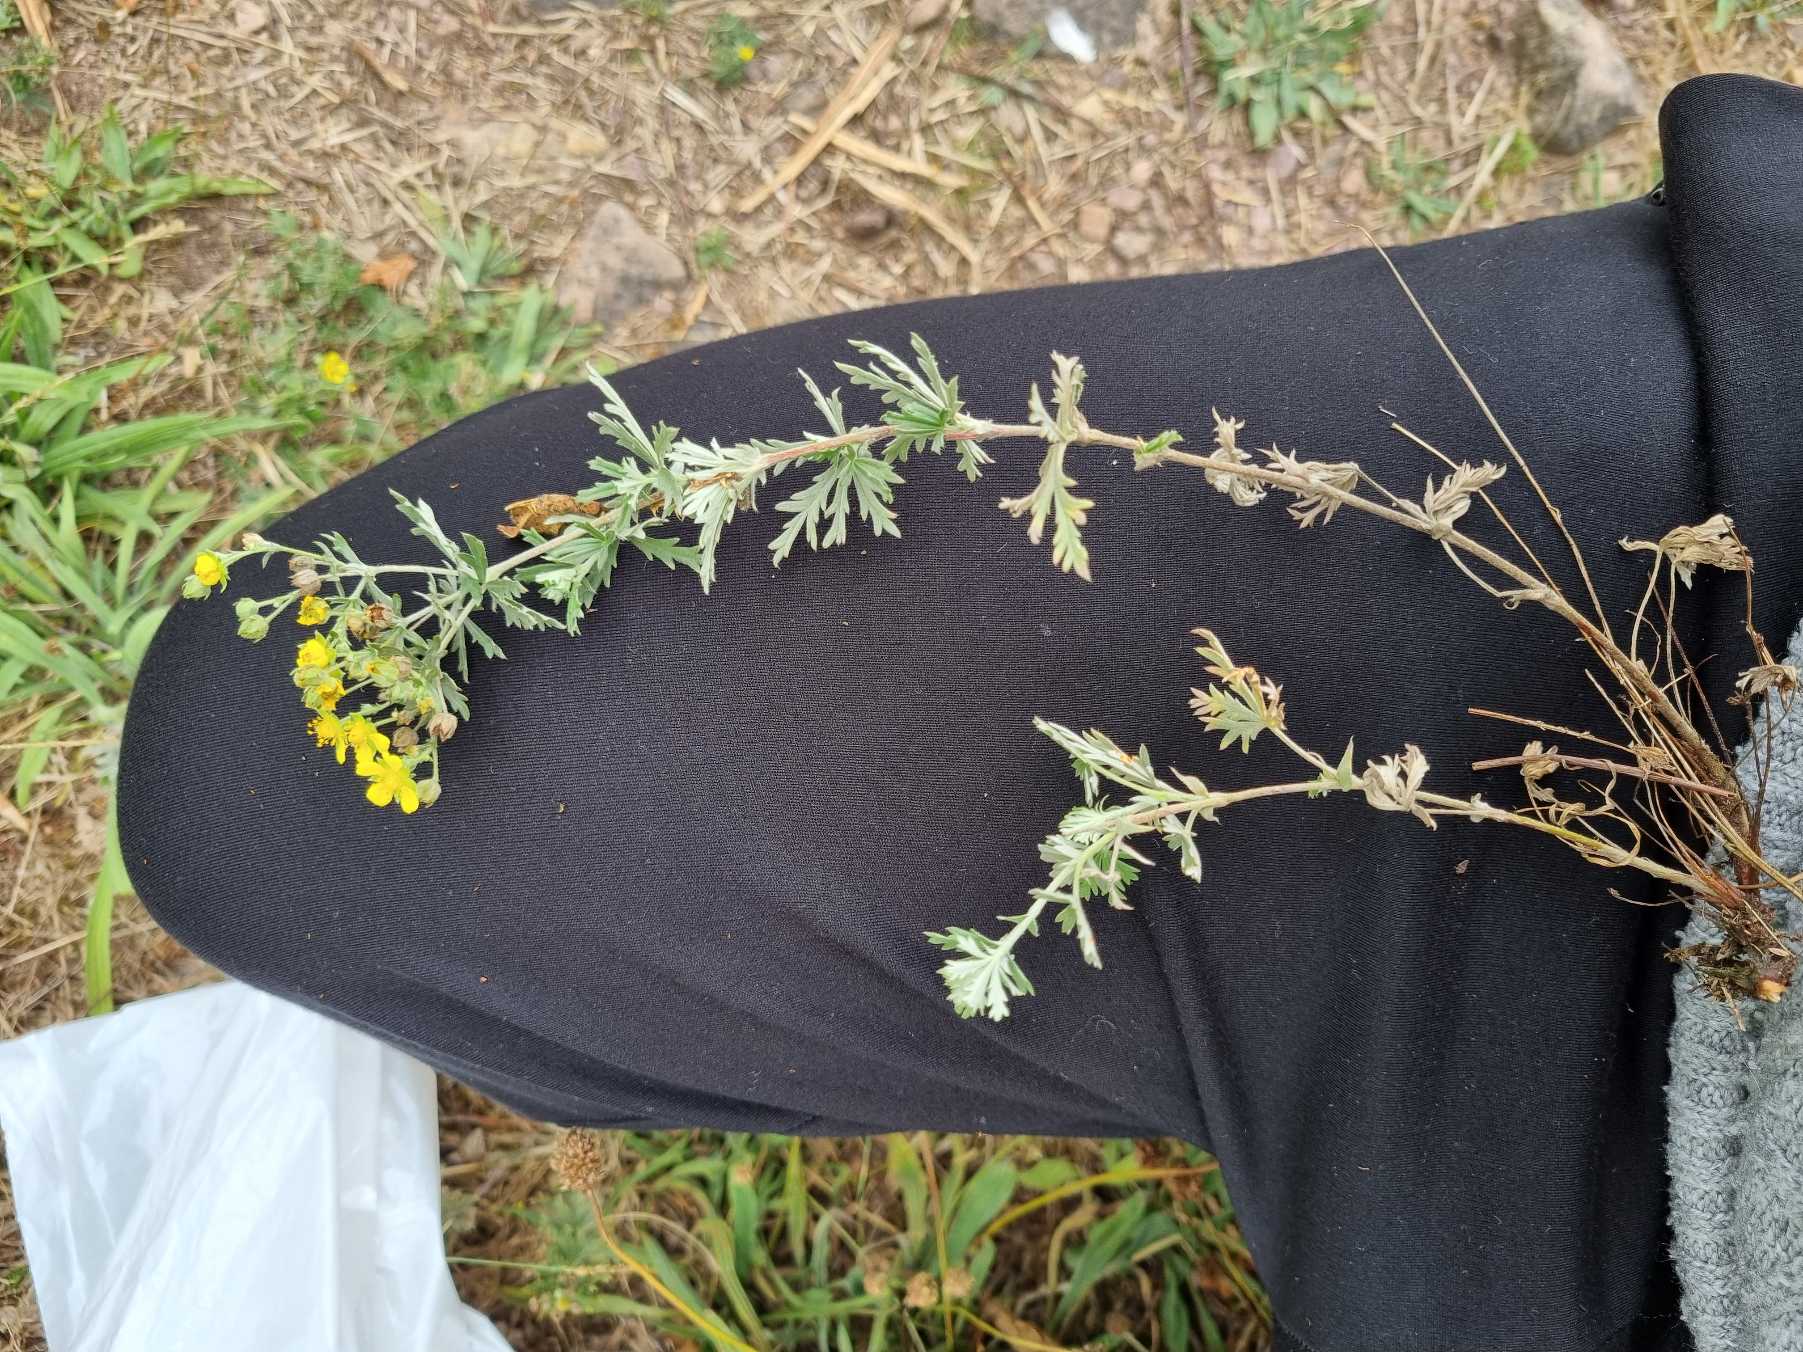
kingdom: Plantae
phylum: Tracheophyta
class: Magnoliopsida
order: Rosales
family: Rosaceae
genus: Potentilla
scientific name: Potentilla argentea
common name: Sølv-potentil
